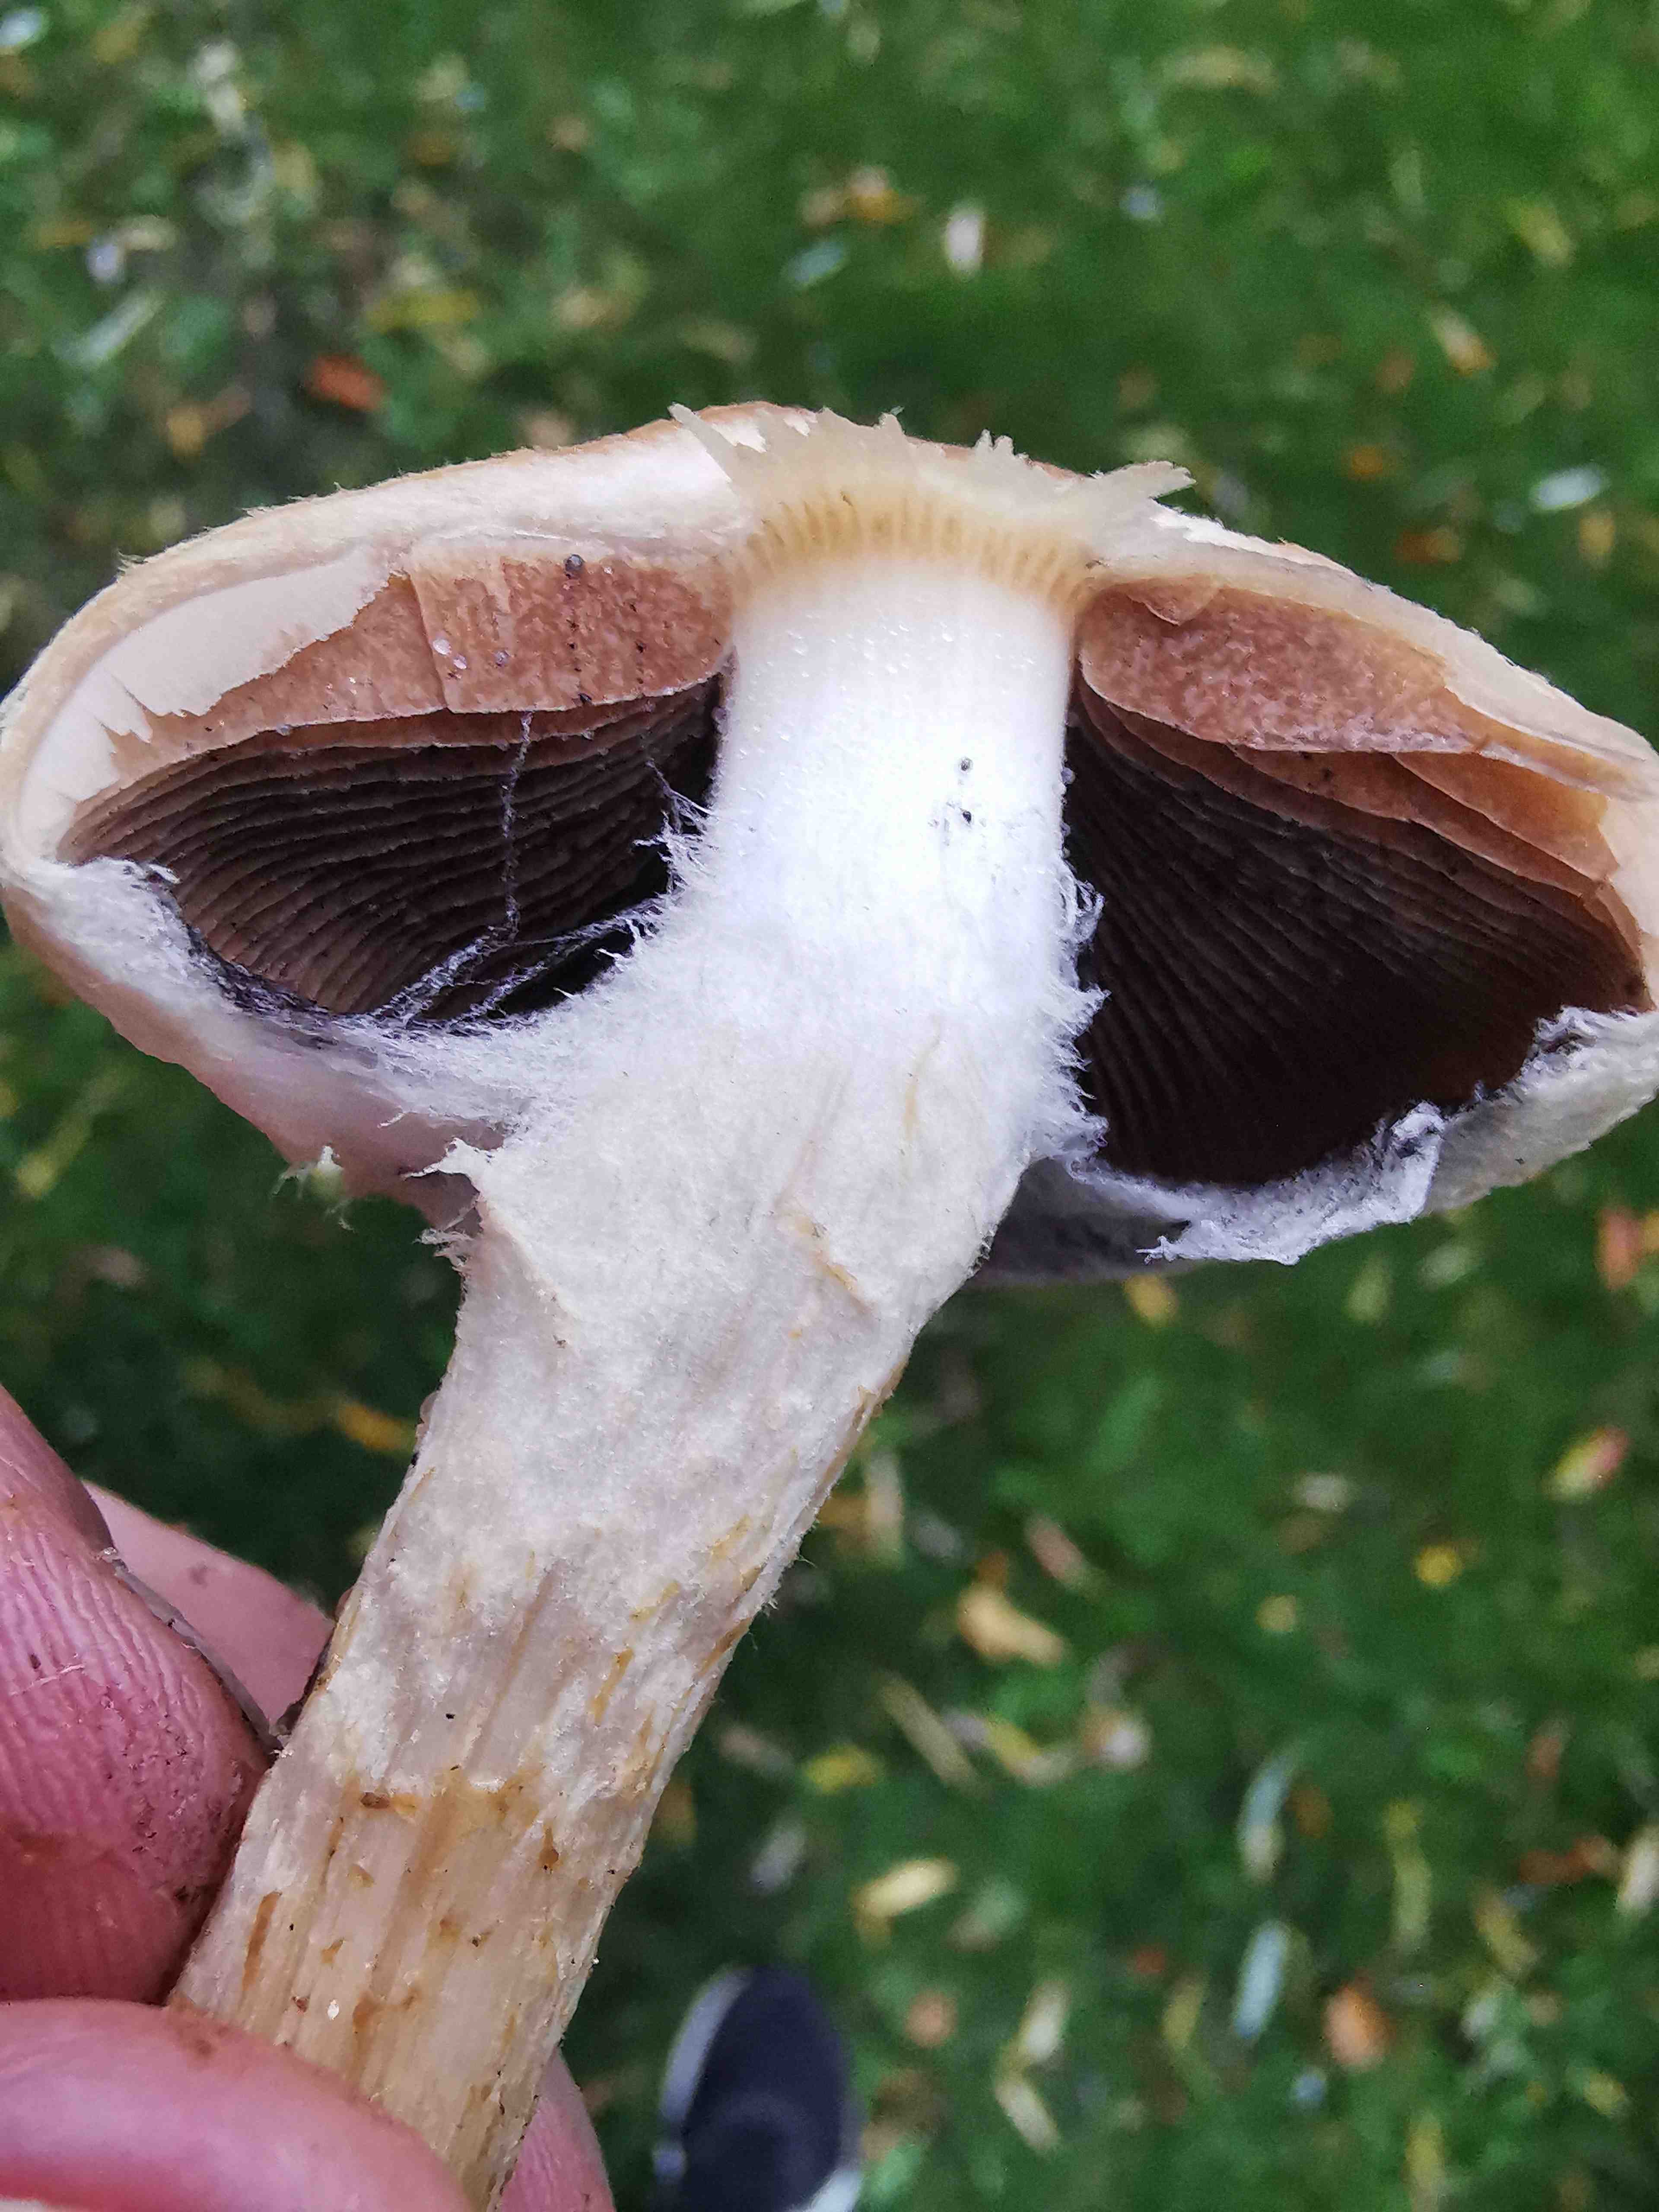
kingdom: Fungi
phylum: Basidiomycota
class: Agaricomycetes
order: Agaricales
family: Psathyrellaceae
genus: Lacrymaria
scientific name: Lacrymaria lacrymabunda
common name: grædende mørkhat
